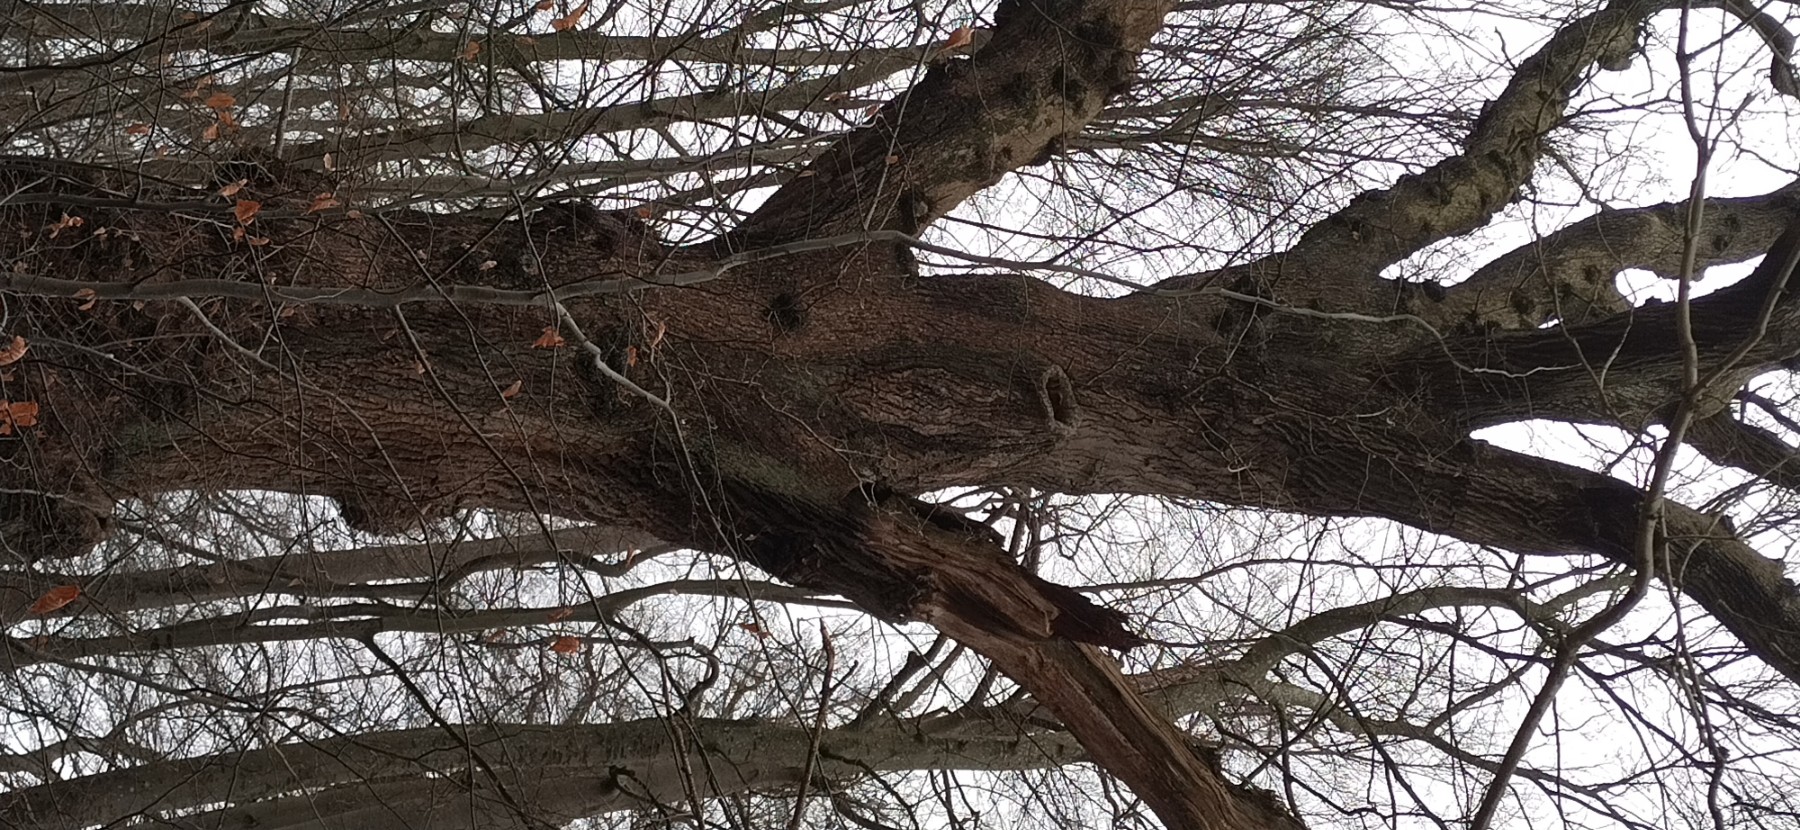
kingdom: Fungi
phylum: Basidiomycota
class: Agaricomycetes
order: Polyporales
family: Phanerochaetaceae
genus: Hapalopilus
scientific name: Hapalopilus croceus
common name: safrangul pragtporesvamp
